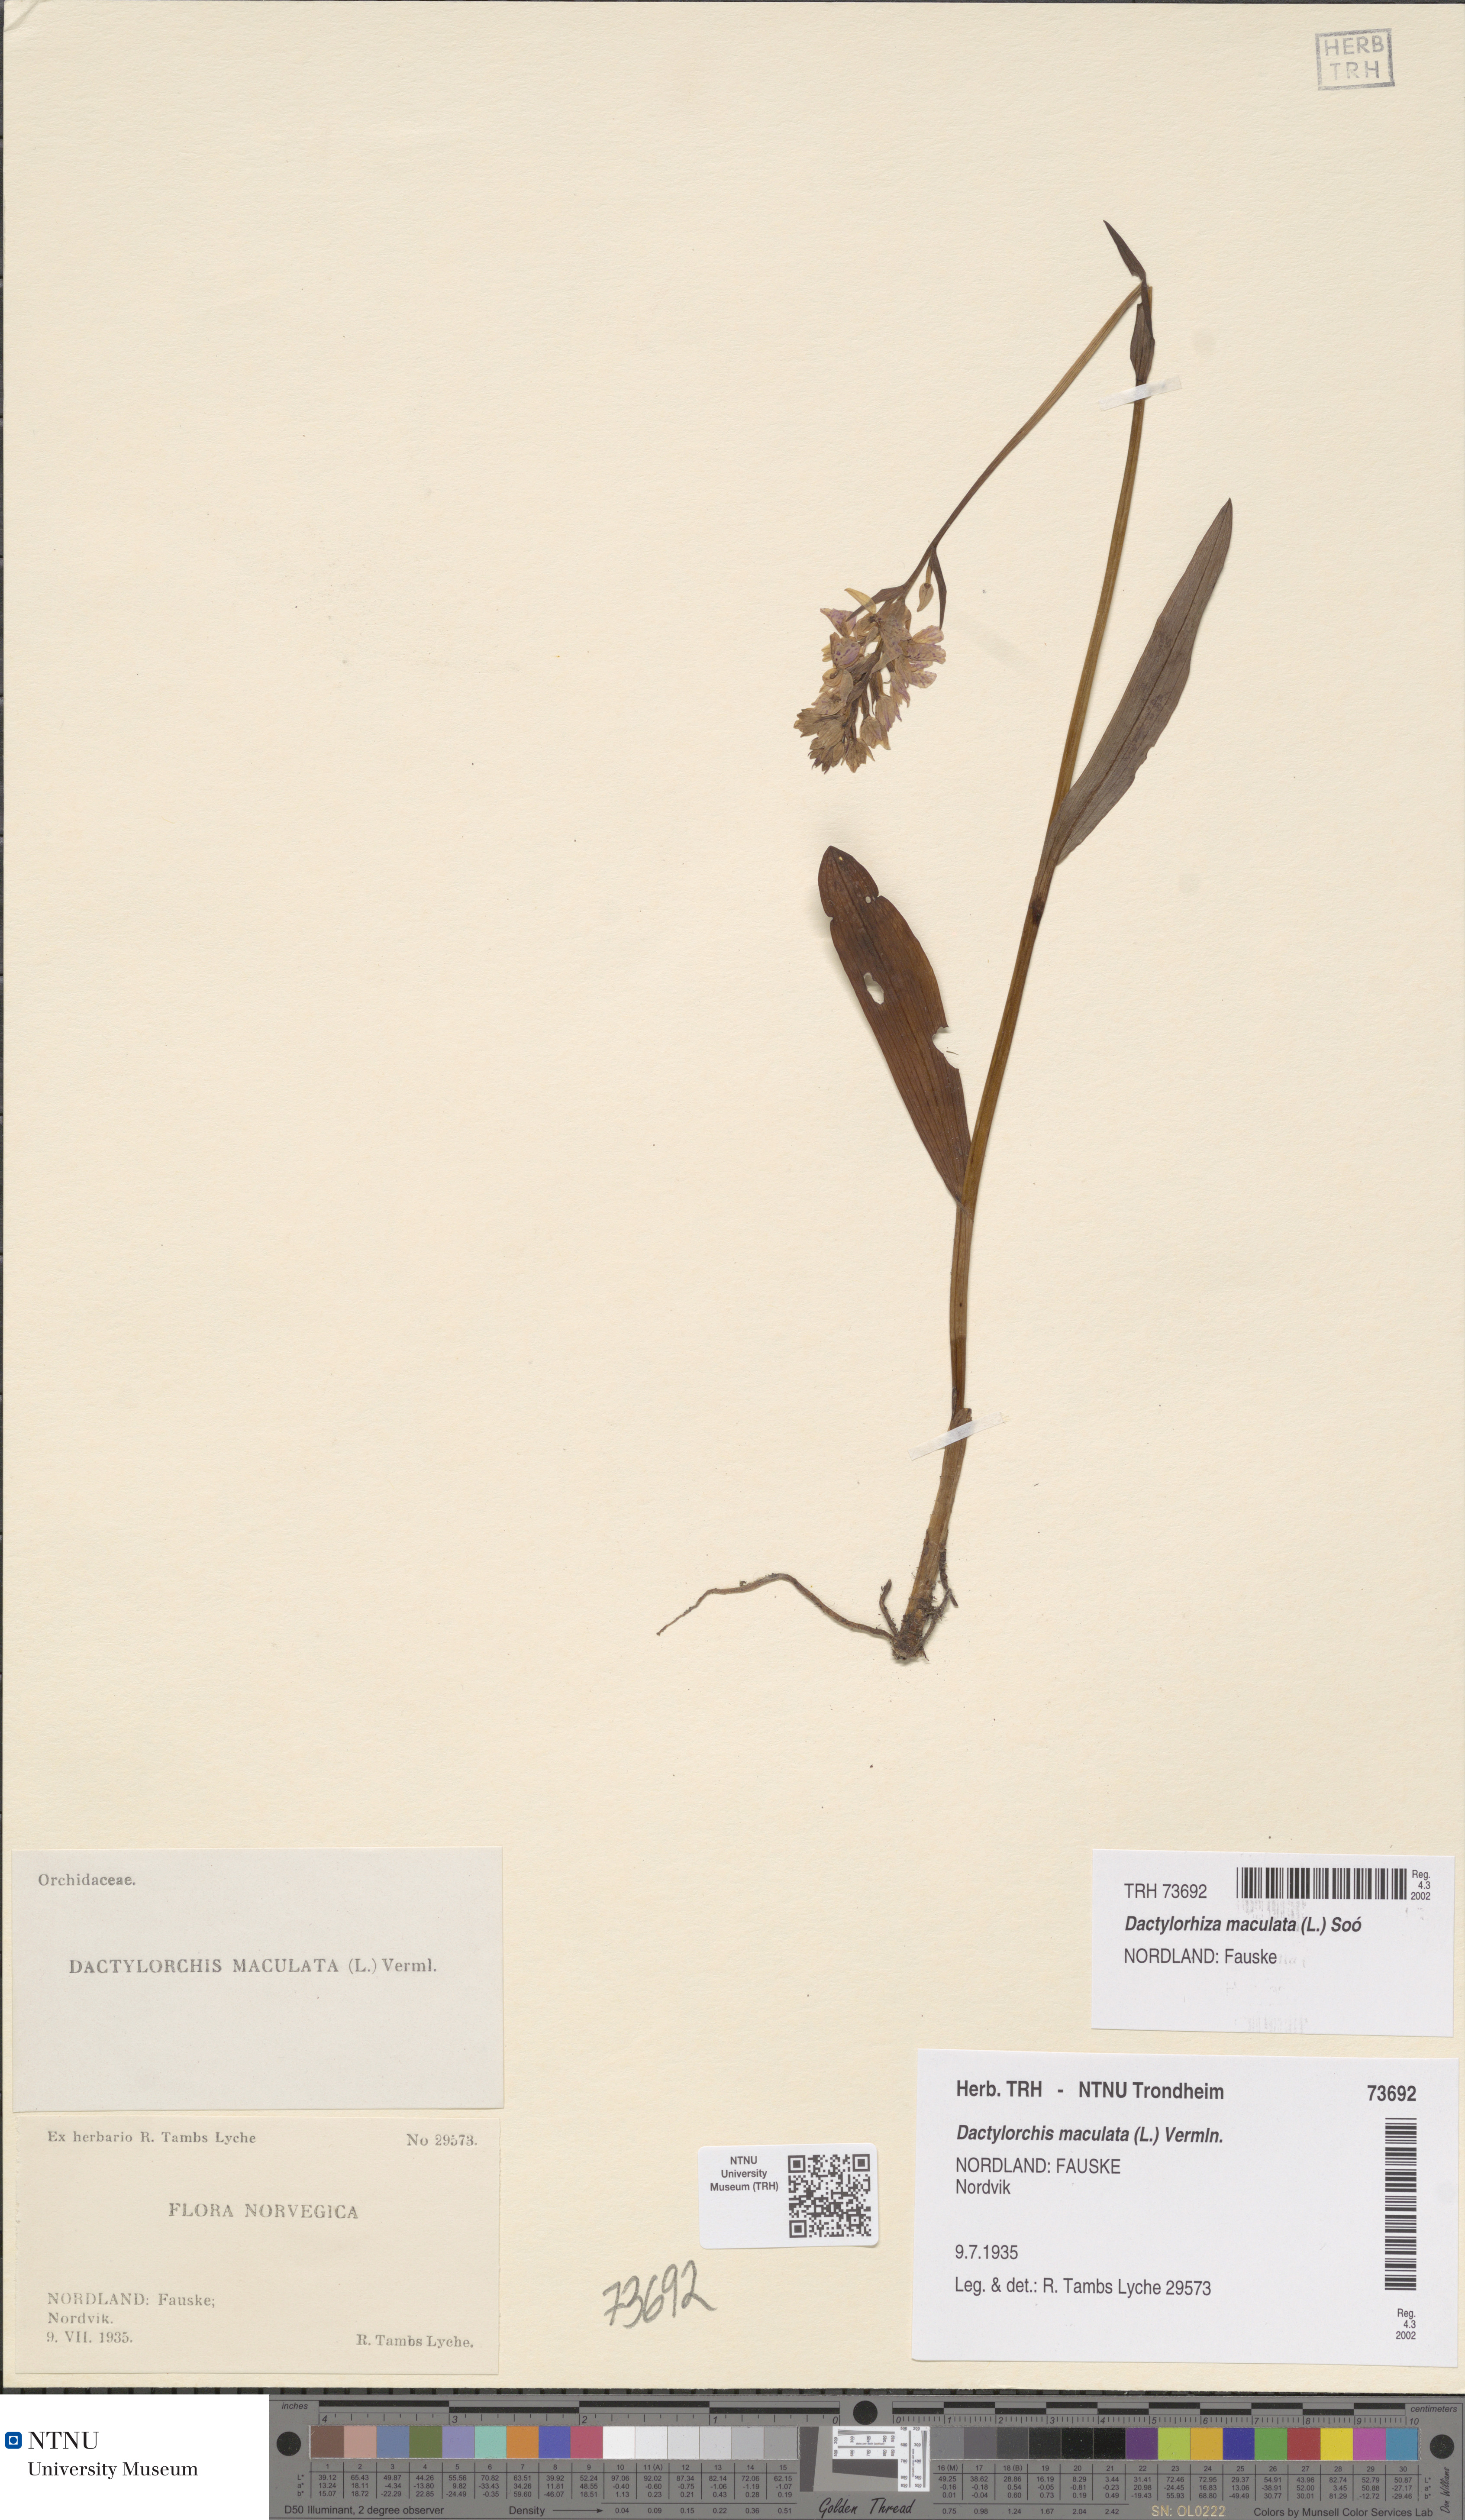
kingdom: Plantae
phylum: Tracheophyta
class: Liliopsida
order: Asparagales
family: Orchidaceae
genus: Dactylorhiza
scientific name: Dactylorhiza maculata
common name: Heath spotted-orchid
